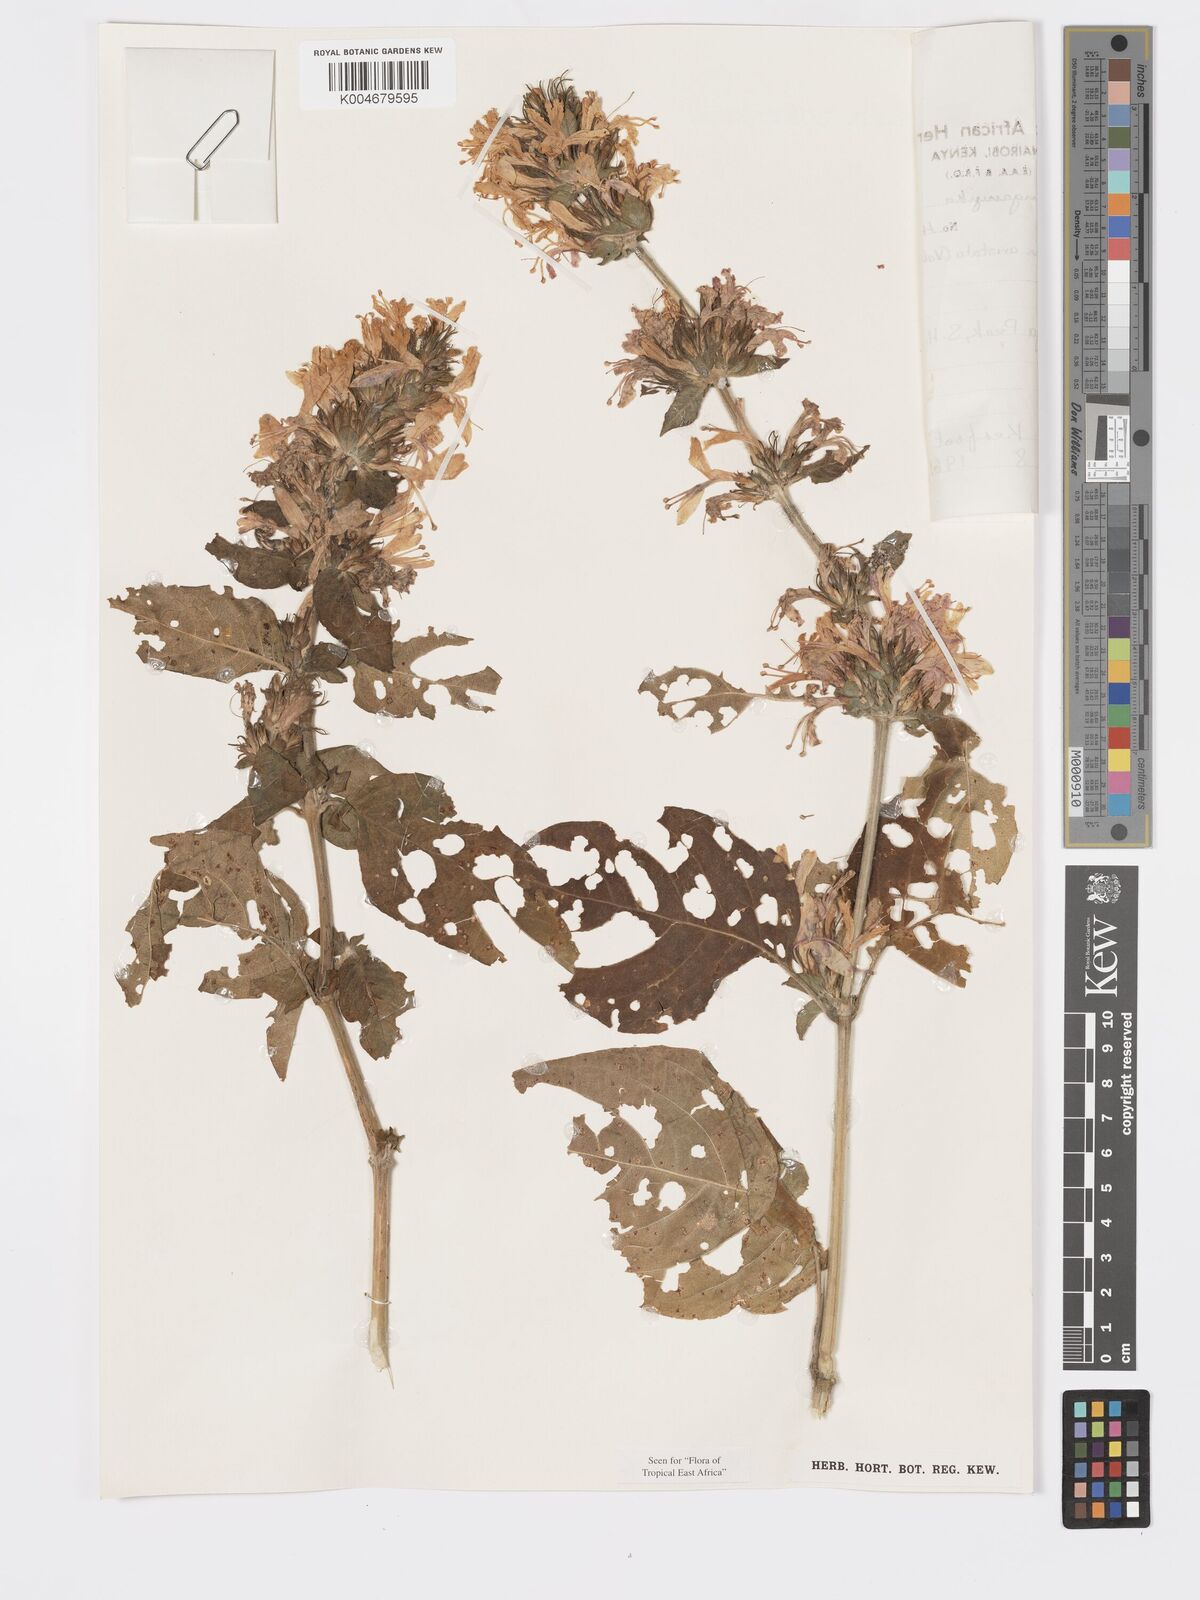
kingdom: Plantae
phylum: Tracheophyta
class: Magnoliopsida
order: Lamiales
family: Acanthaceae
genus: Hypoestes
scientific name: Hypoestes aristata
